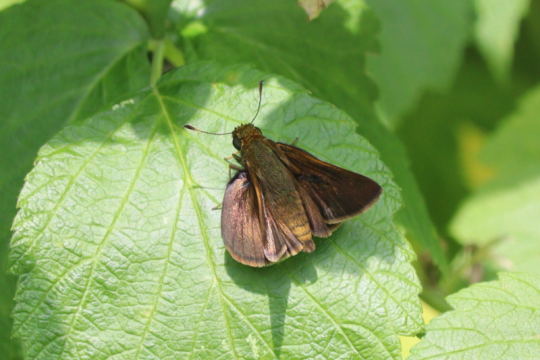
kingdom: Animalia
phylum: Arthropoda
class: Insecta
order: Lepidoptera
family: Hesperiidae
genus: Euphyes
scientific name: Euphyes vestris
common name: Dun Skipper
